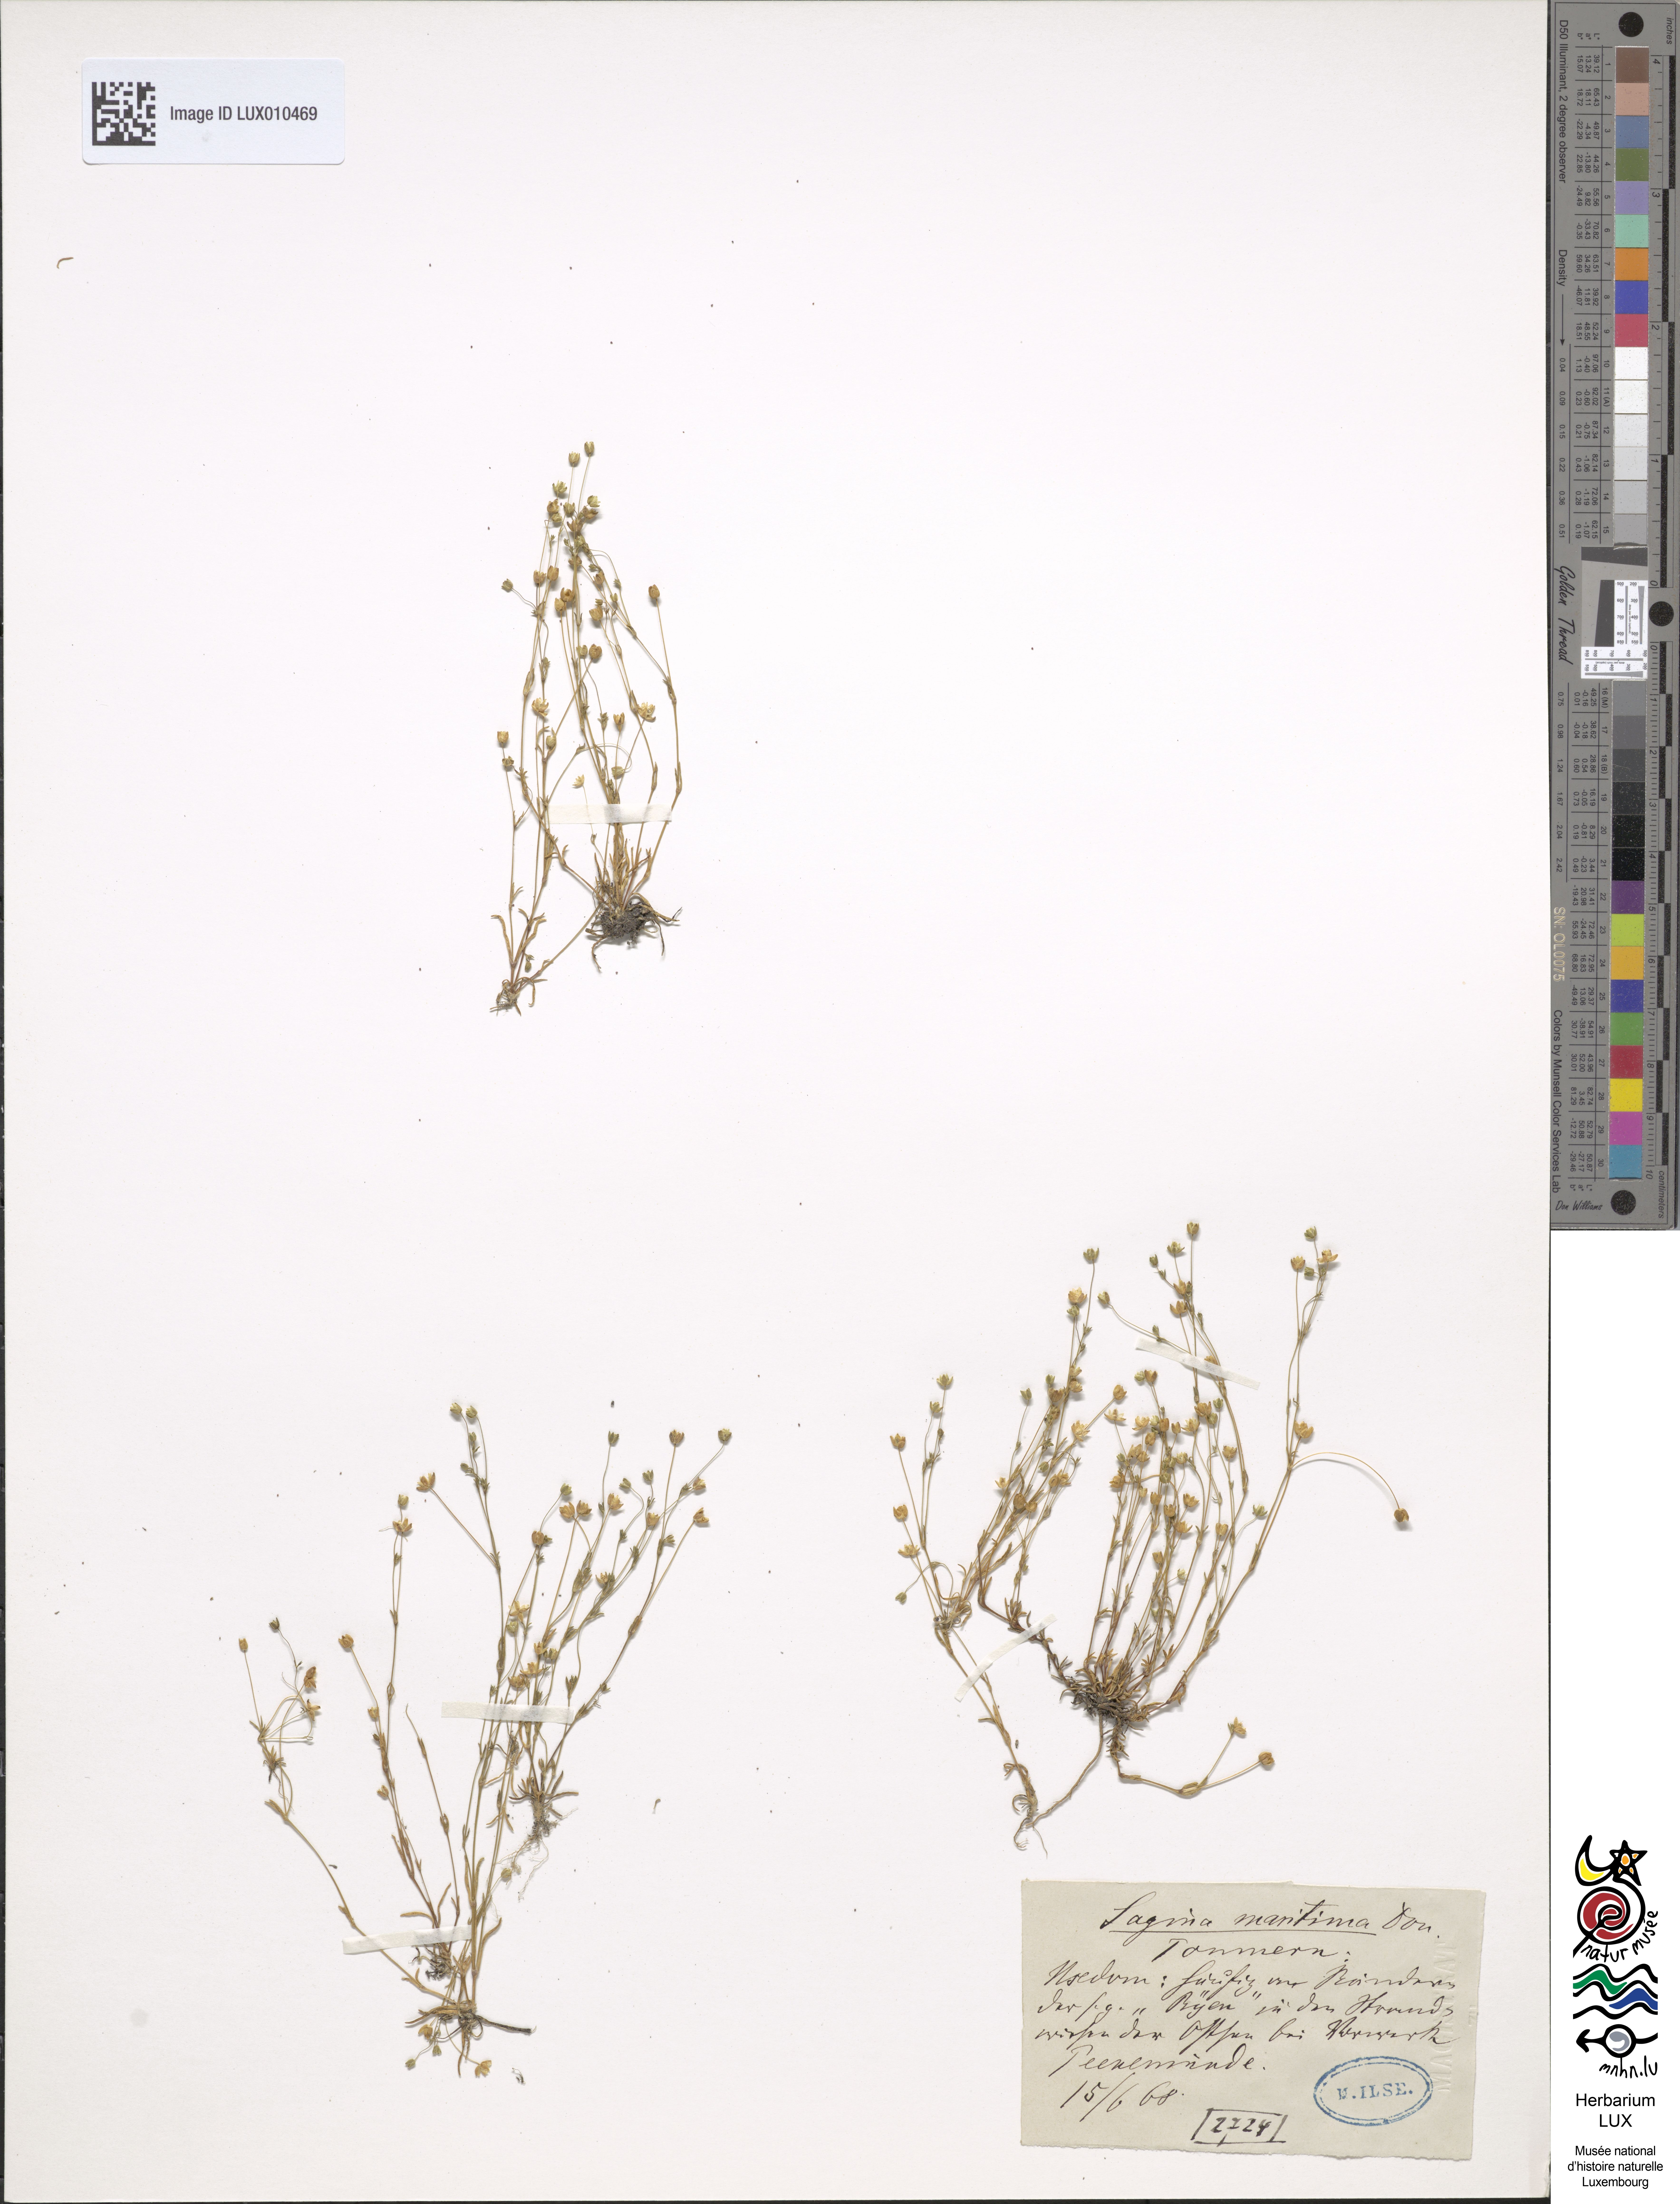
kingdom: Plantae
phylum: Tracheophyta
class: Magnoliopsida
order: Caryophyllales
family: Caryophyllaceae
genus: Sagina
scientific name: Sagina maritima
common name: Sea pearlwort
